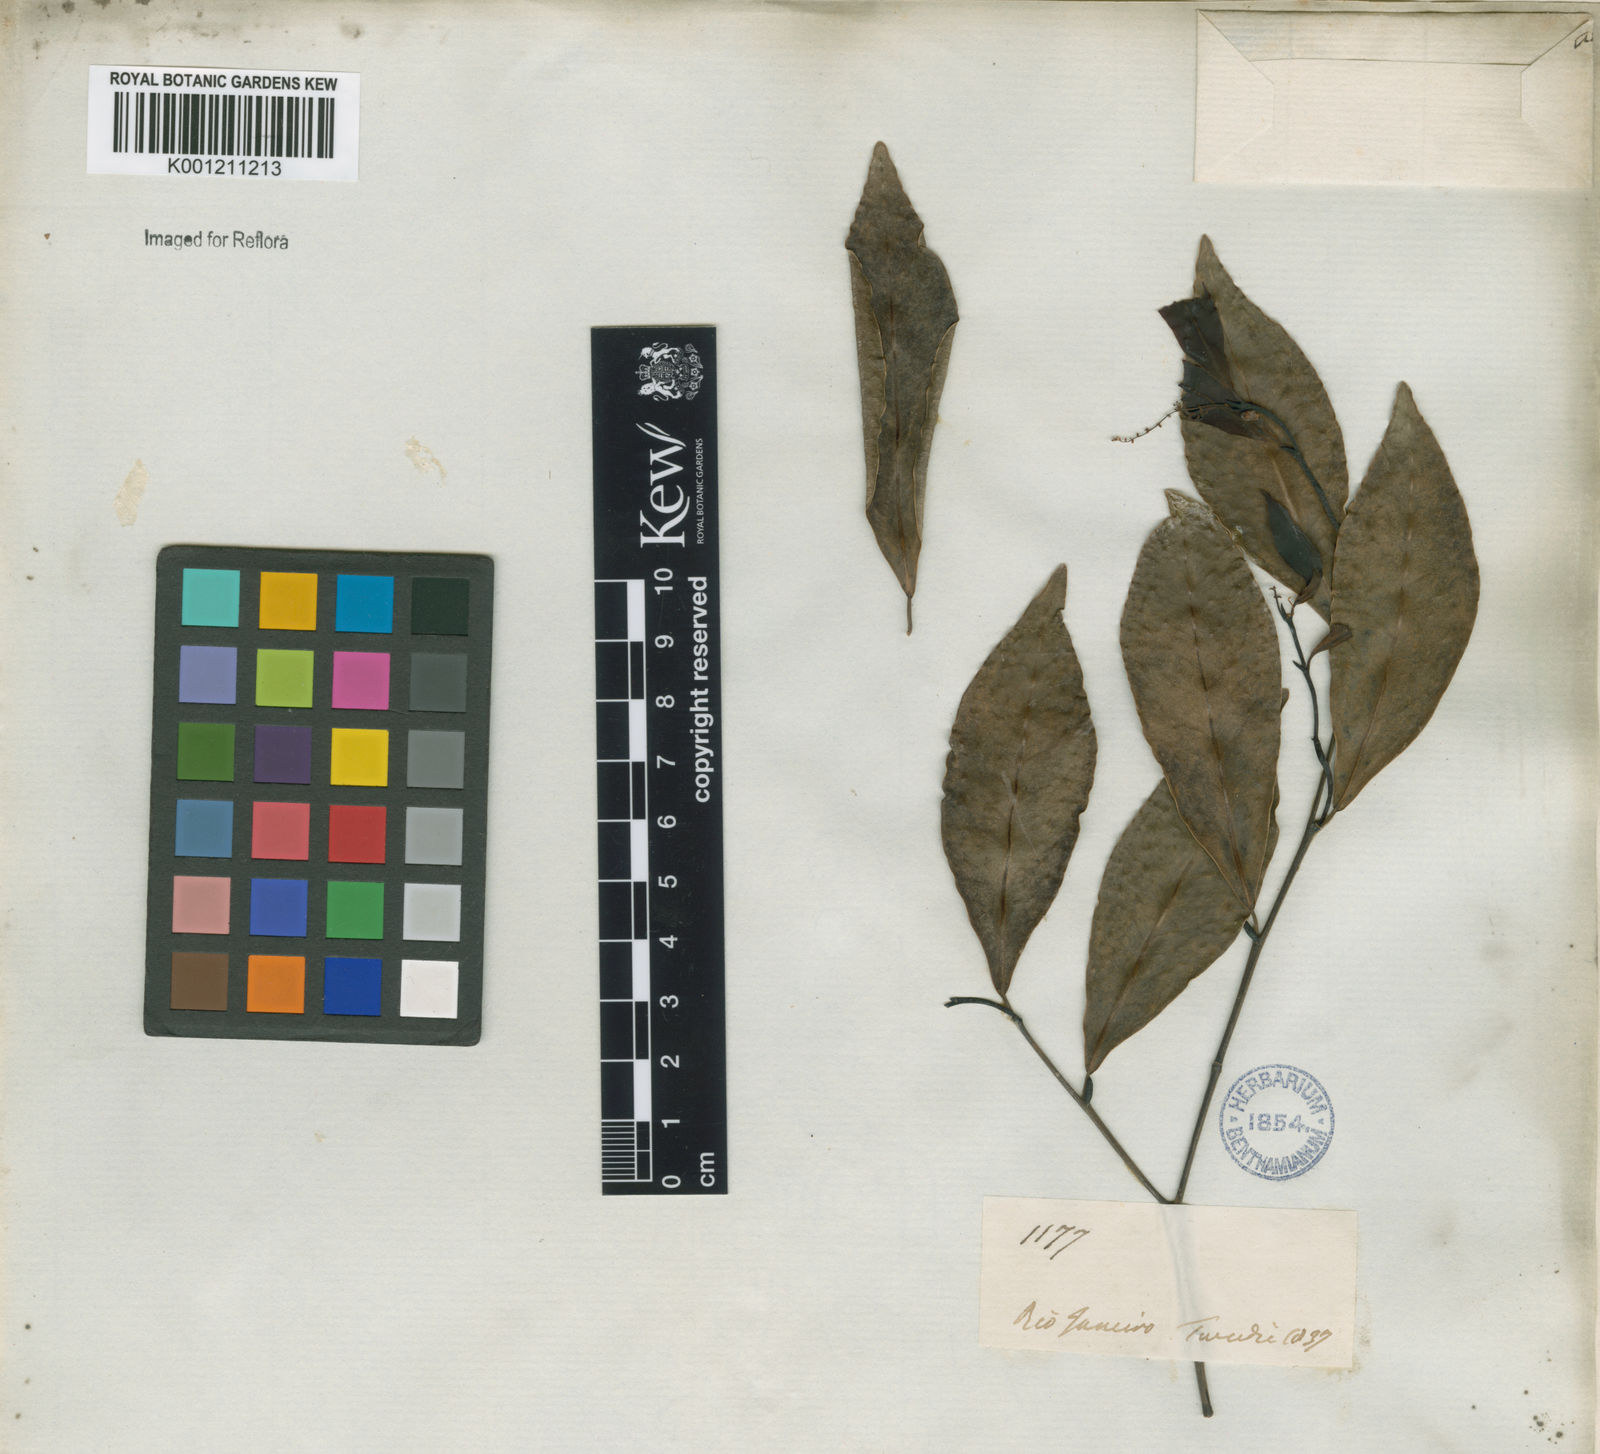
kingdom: Plantae
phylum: Tracheophyta
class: Magnoliopsida
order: Malpighiales
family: Euphorbiaceae
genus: Actinostemon
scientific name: Actinostemon
